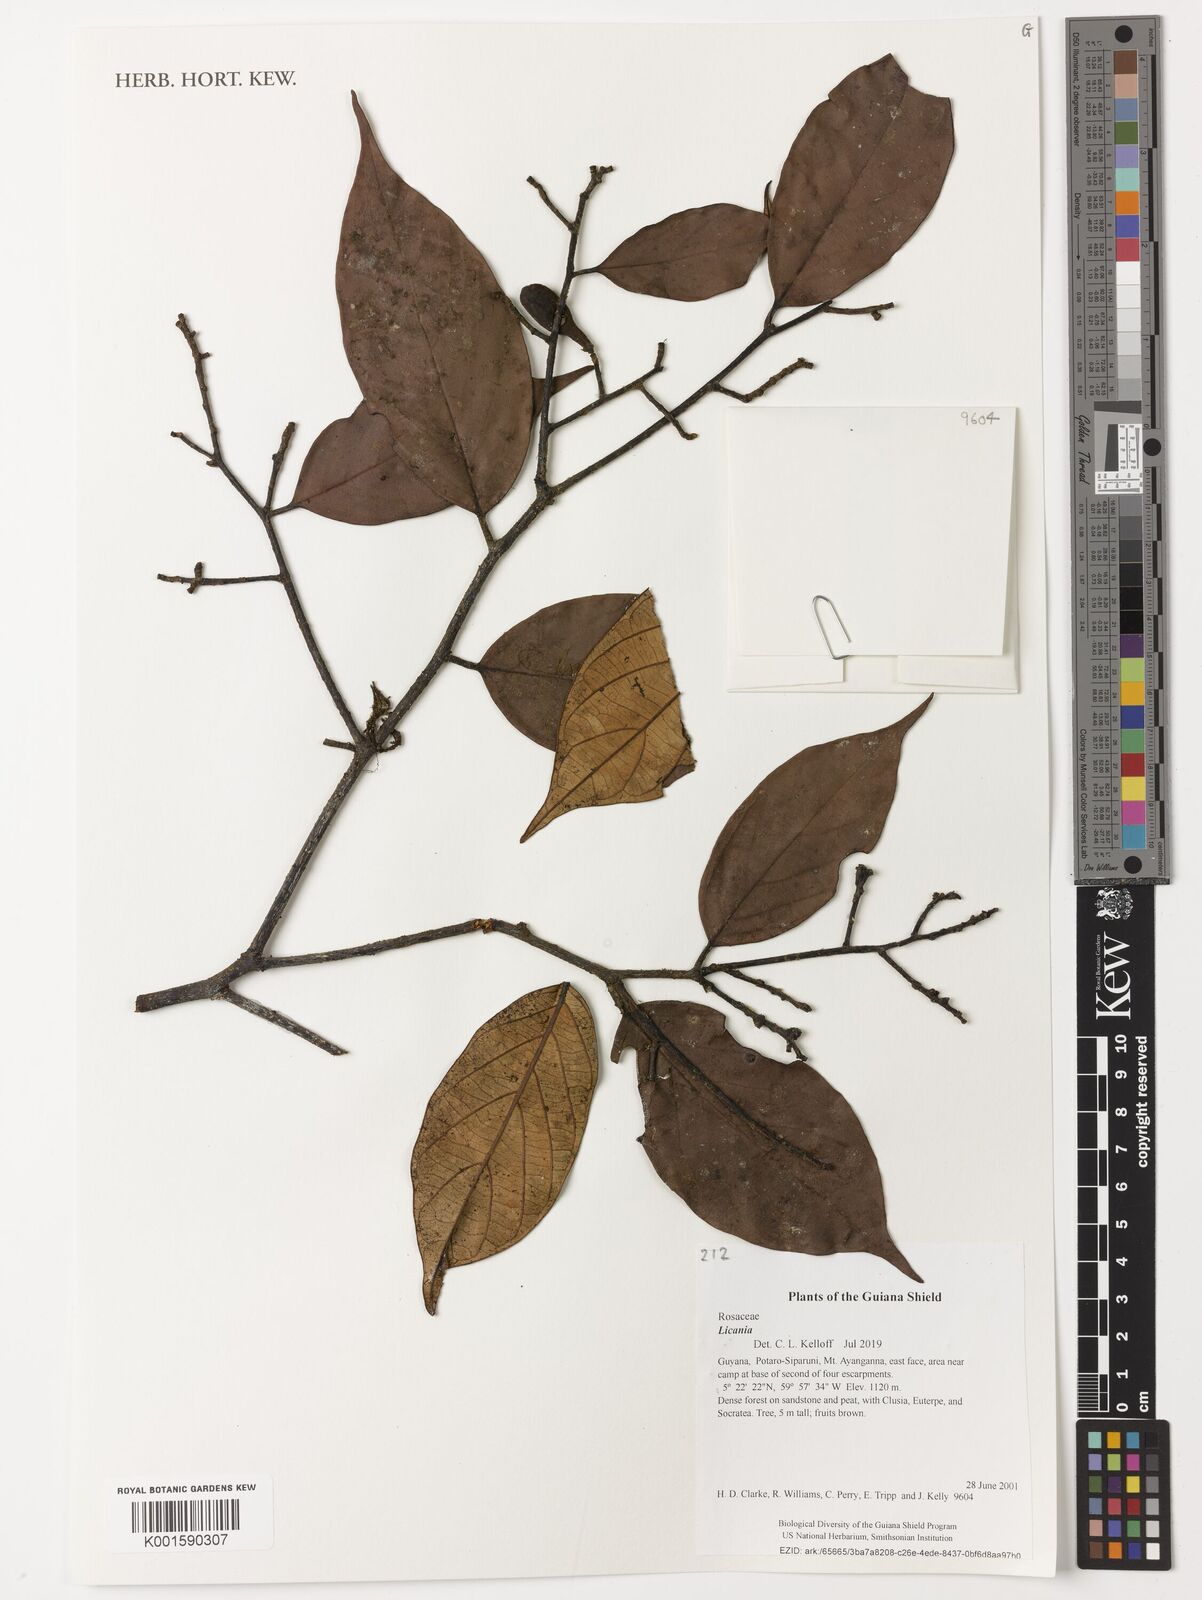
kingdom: Plantae
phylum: Tracheophyta
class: Magnoliopsida
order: Malpighiales
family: Chrysobalanaceae
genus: Licania
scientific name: Licania
